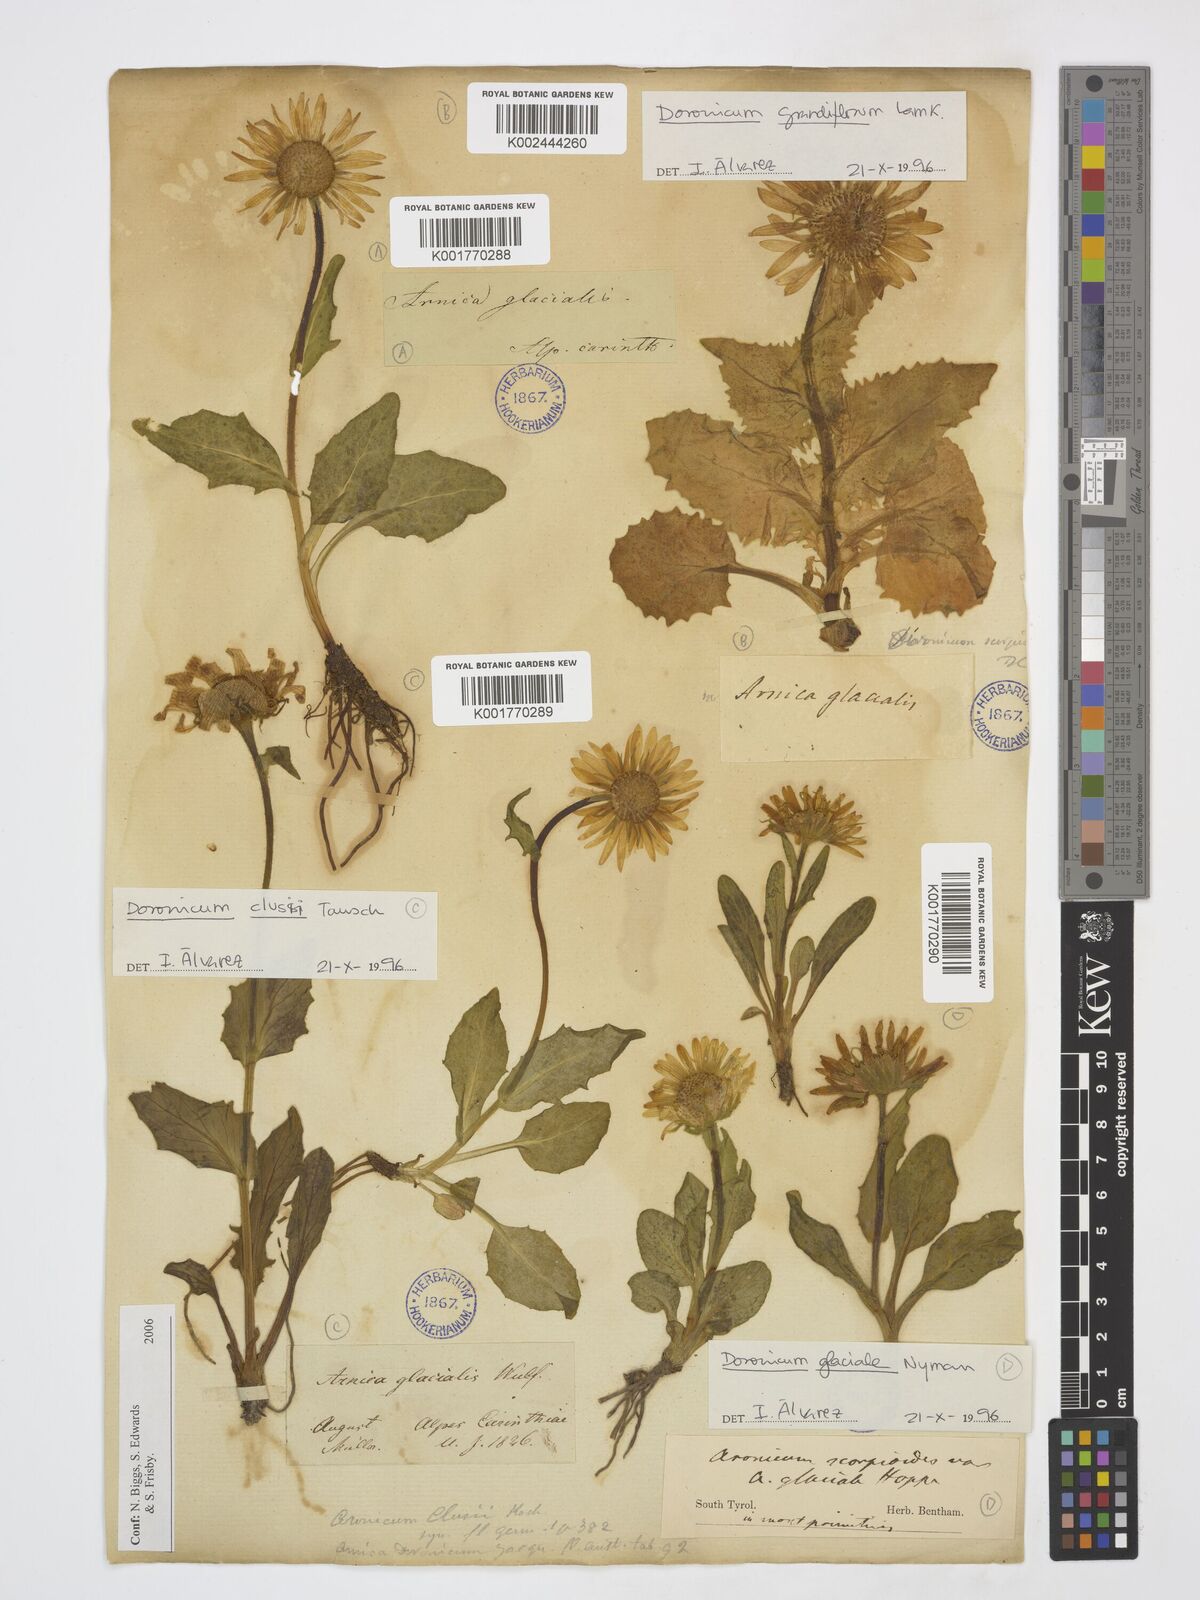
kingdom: Plantae
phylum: Tracheophyta
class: Magnoliopsida
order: Asterales
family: Asteraceae
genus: Doronicum
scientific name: Doronicum grandiflorum
